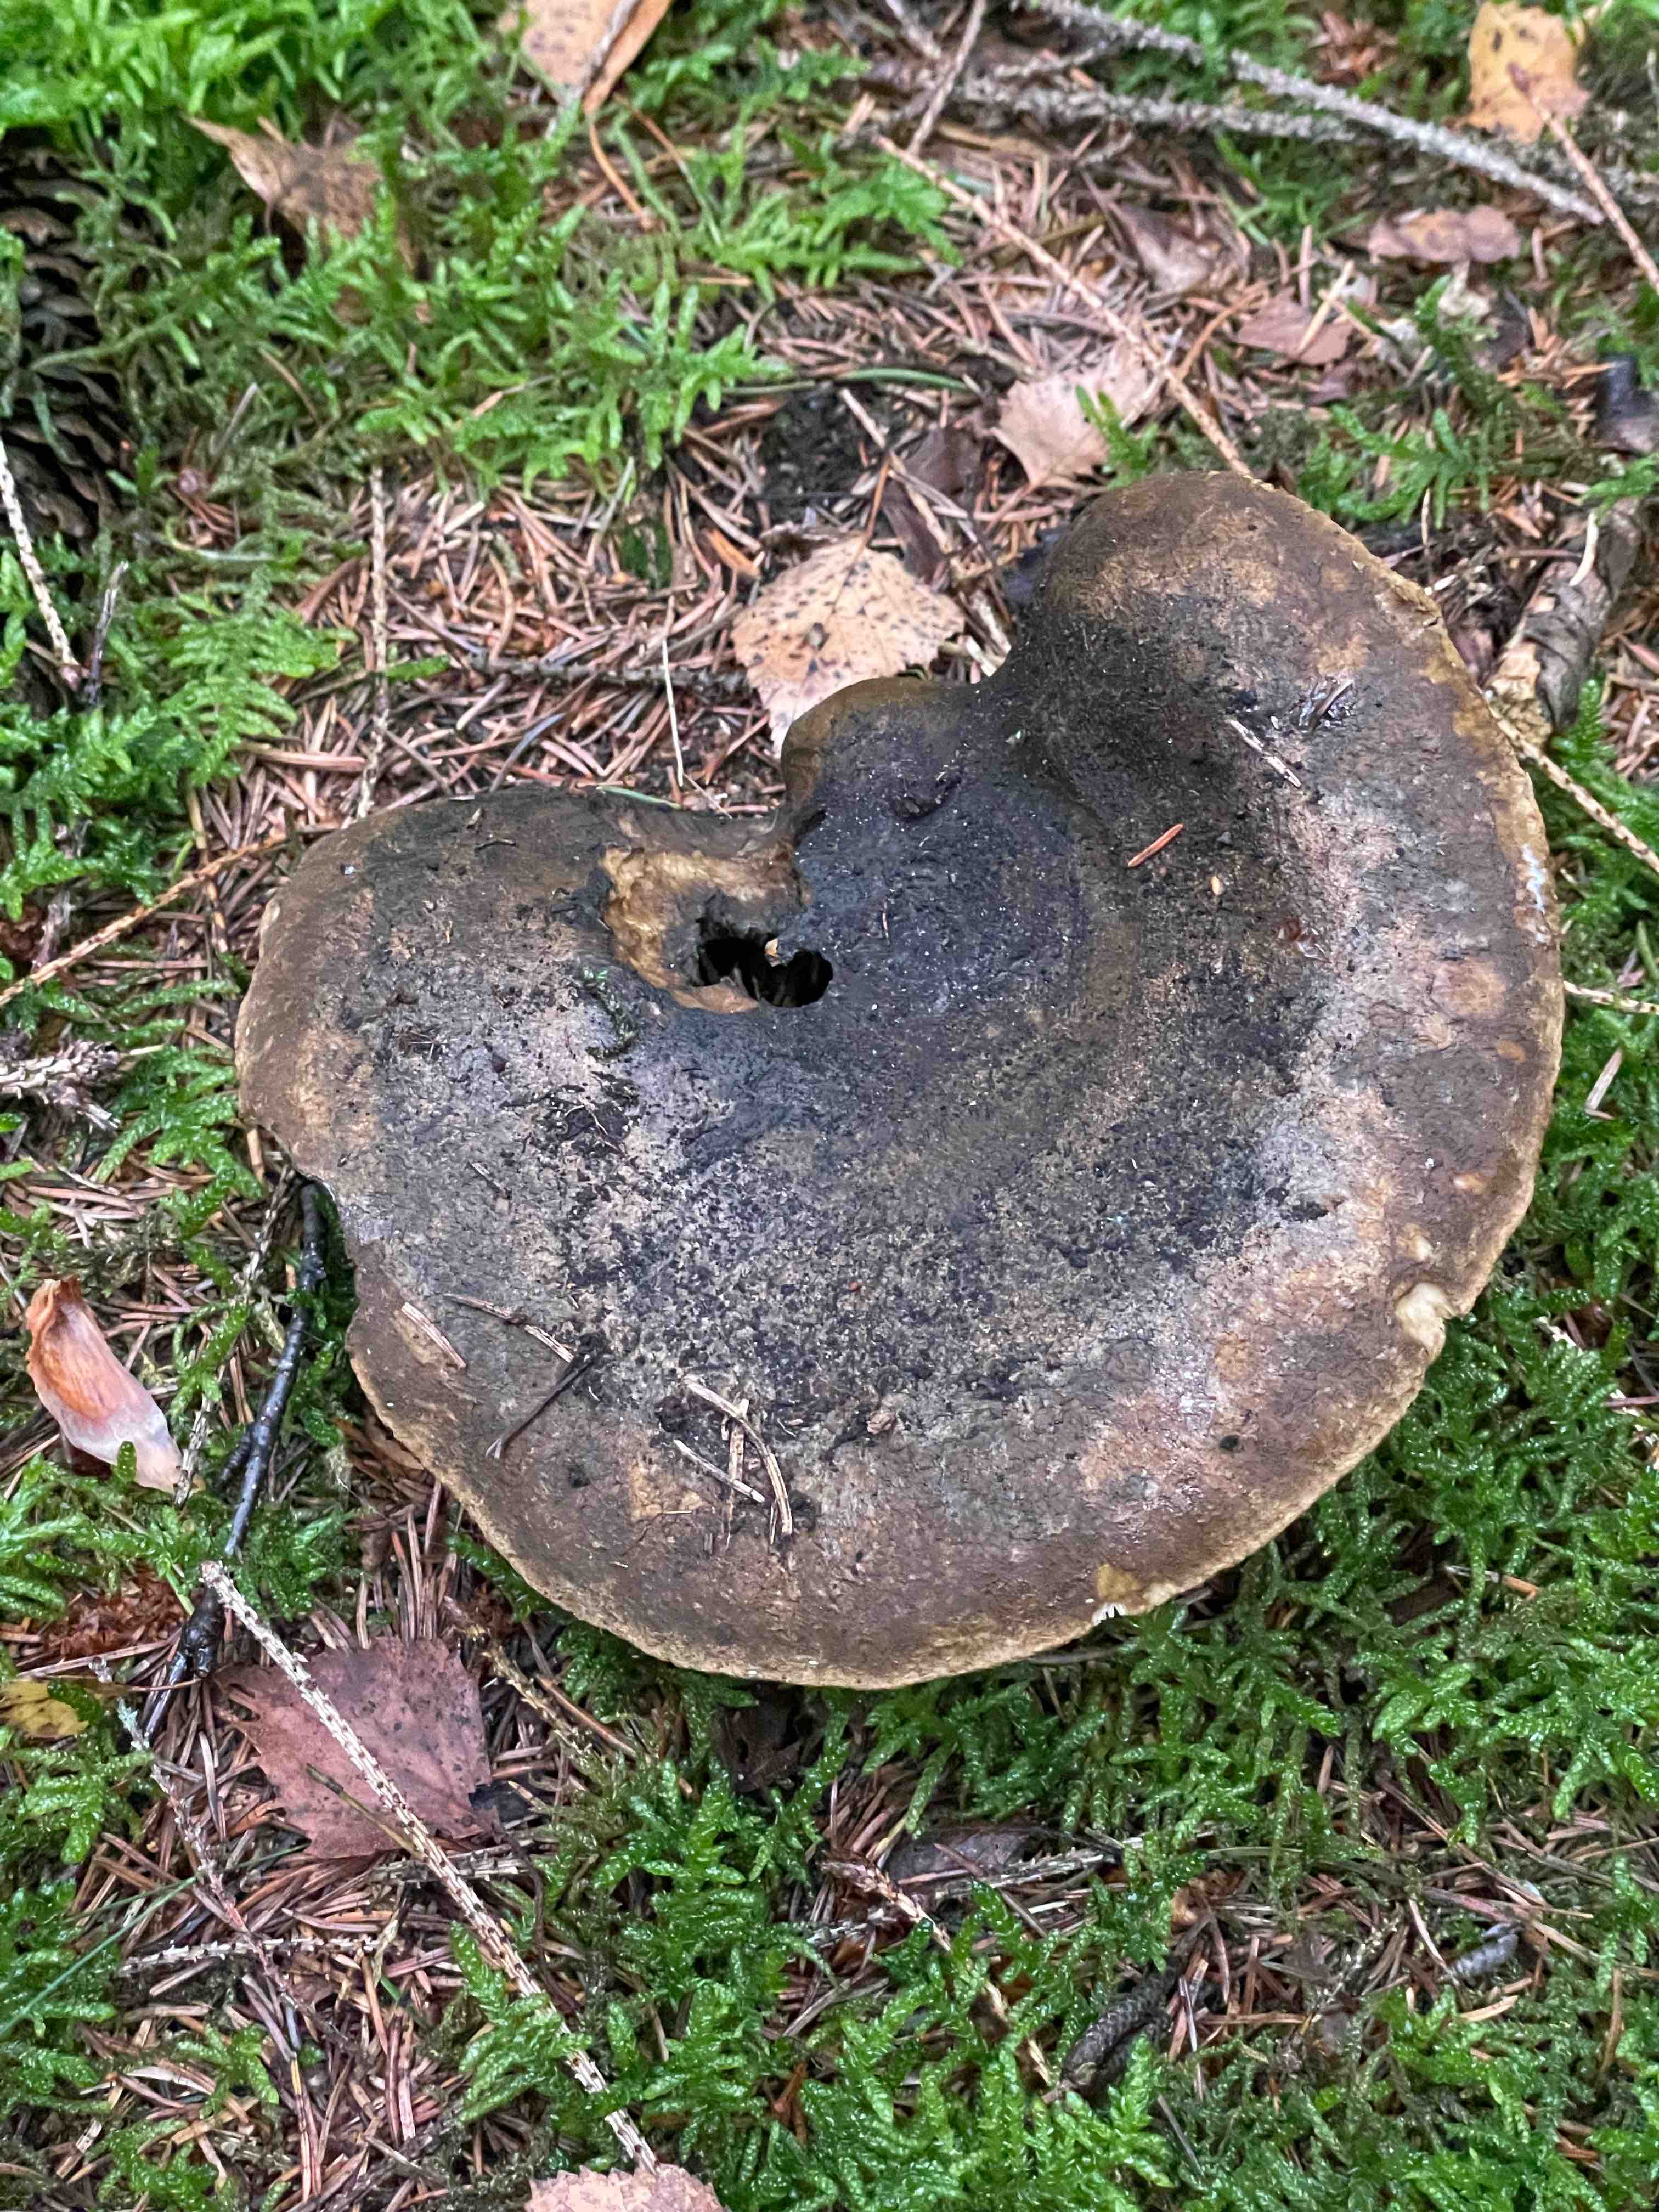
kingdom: Fungi
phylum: Basidiomycota
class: Agaricomycetes
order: Russulales
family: Russulaceae
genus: Lactarius
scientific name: Lactarius necator
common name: manddraber-mælkehat
